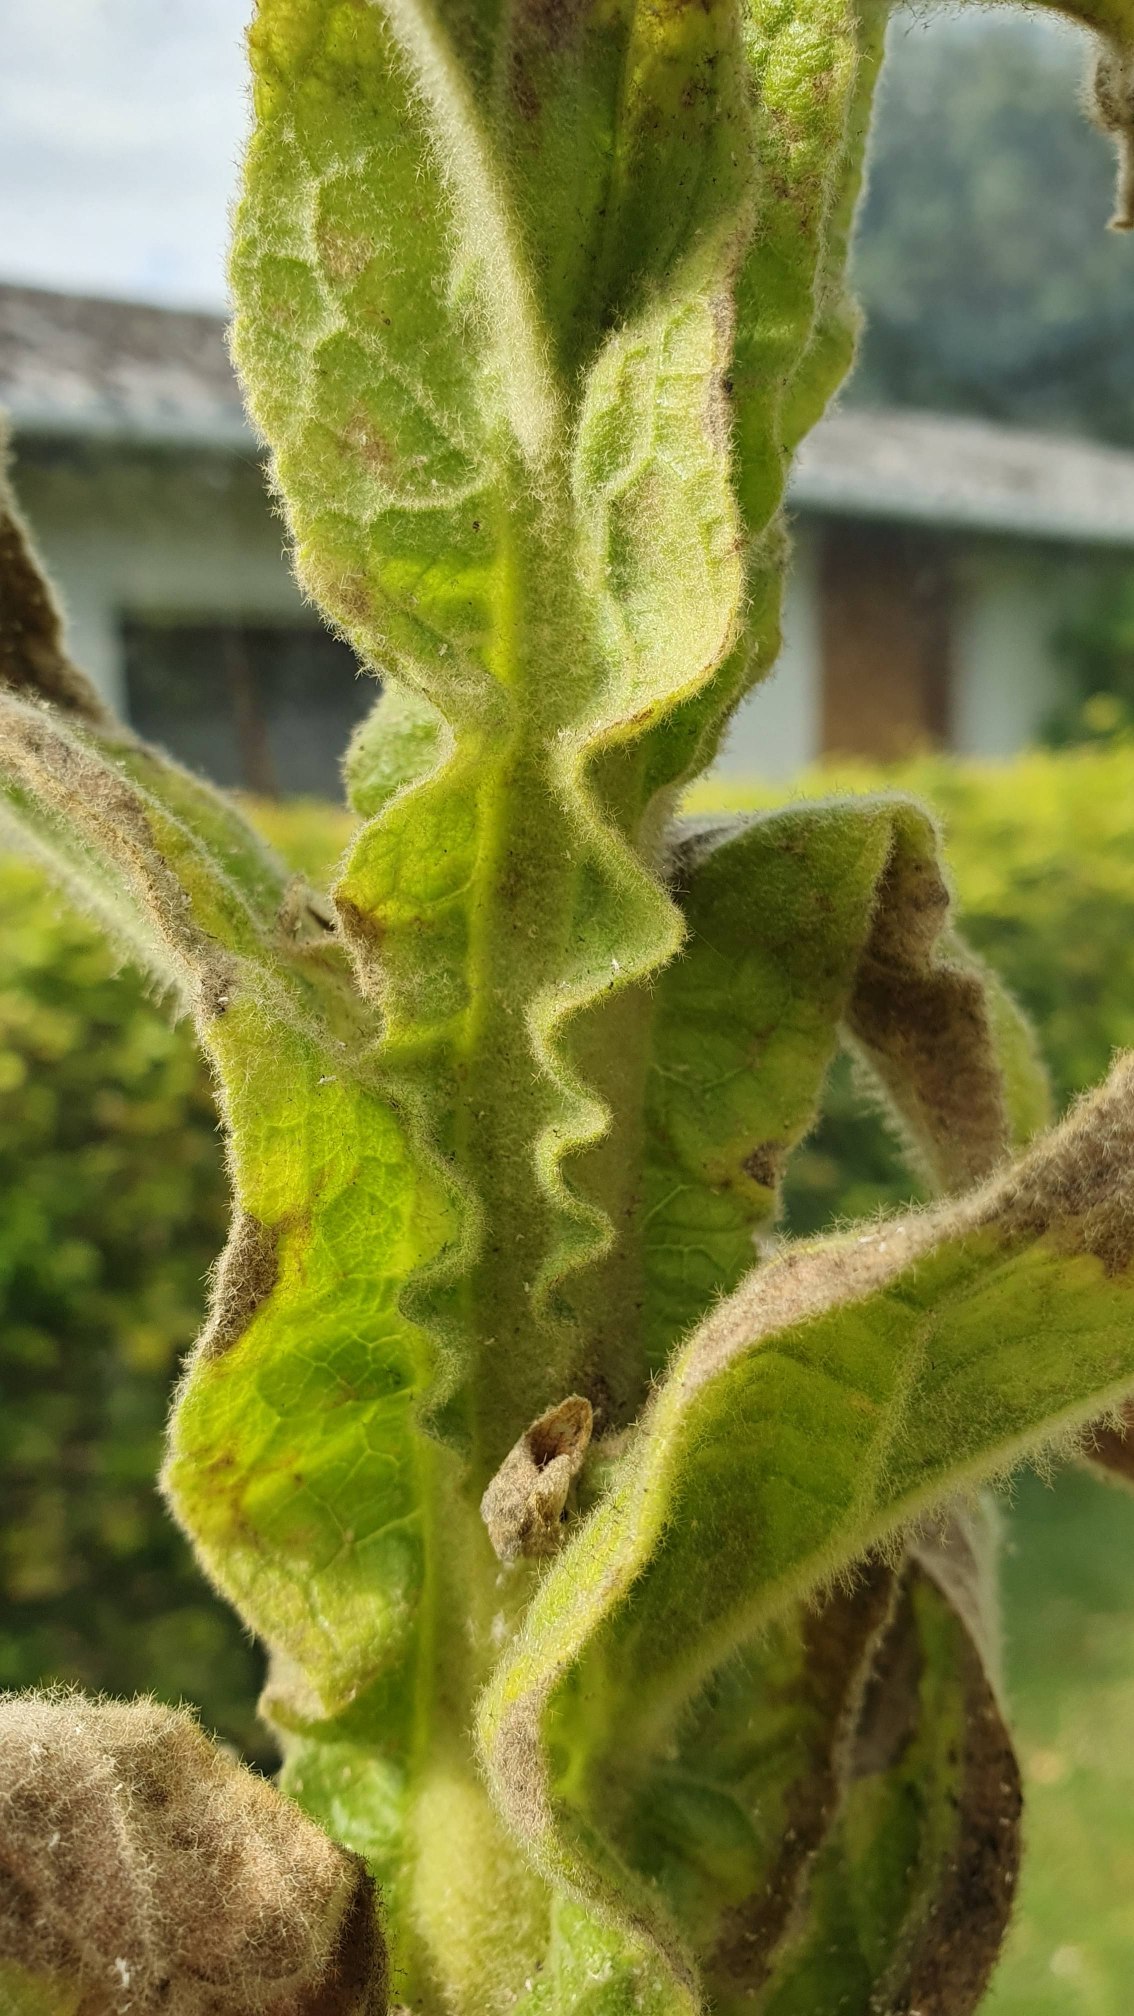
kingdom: Plantae
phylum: Tracheophyta
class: Magnoliopsida
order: Lamiales
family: Scrophulariaceae
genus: Verbascum
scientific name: Verbascum thapsus
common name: Filtbladet kongelys
